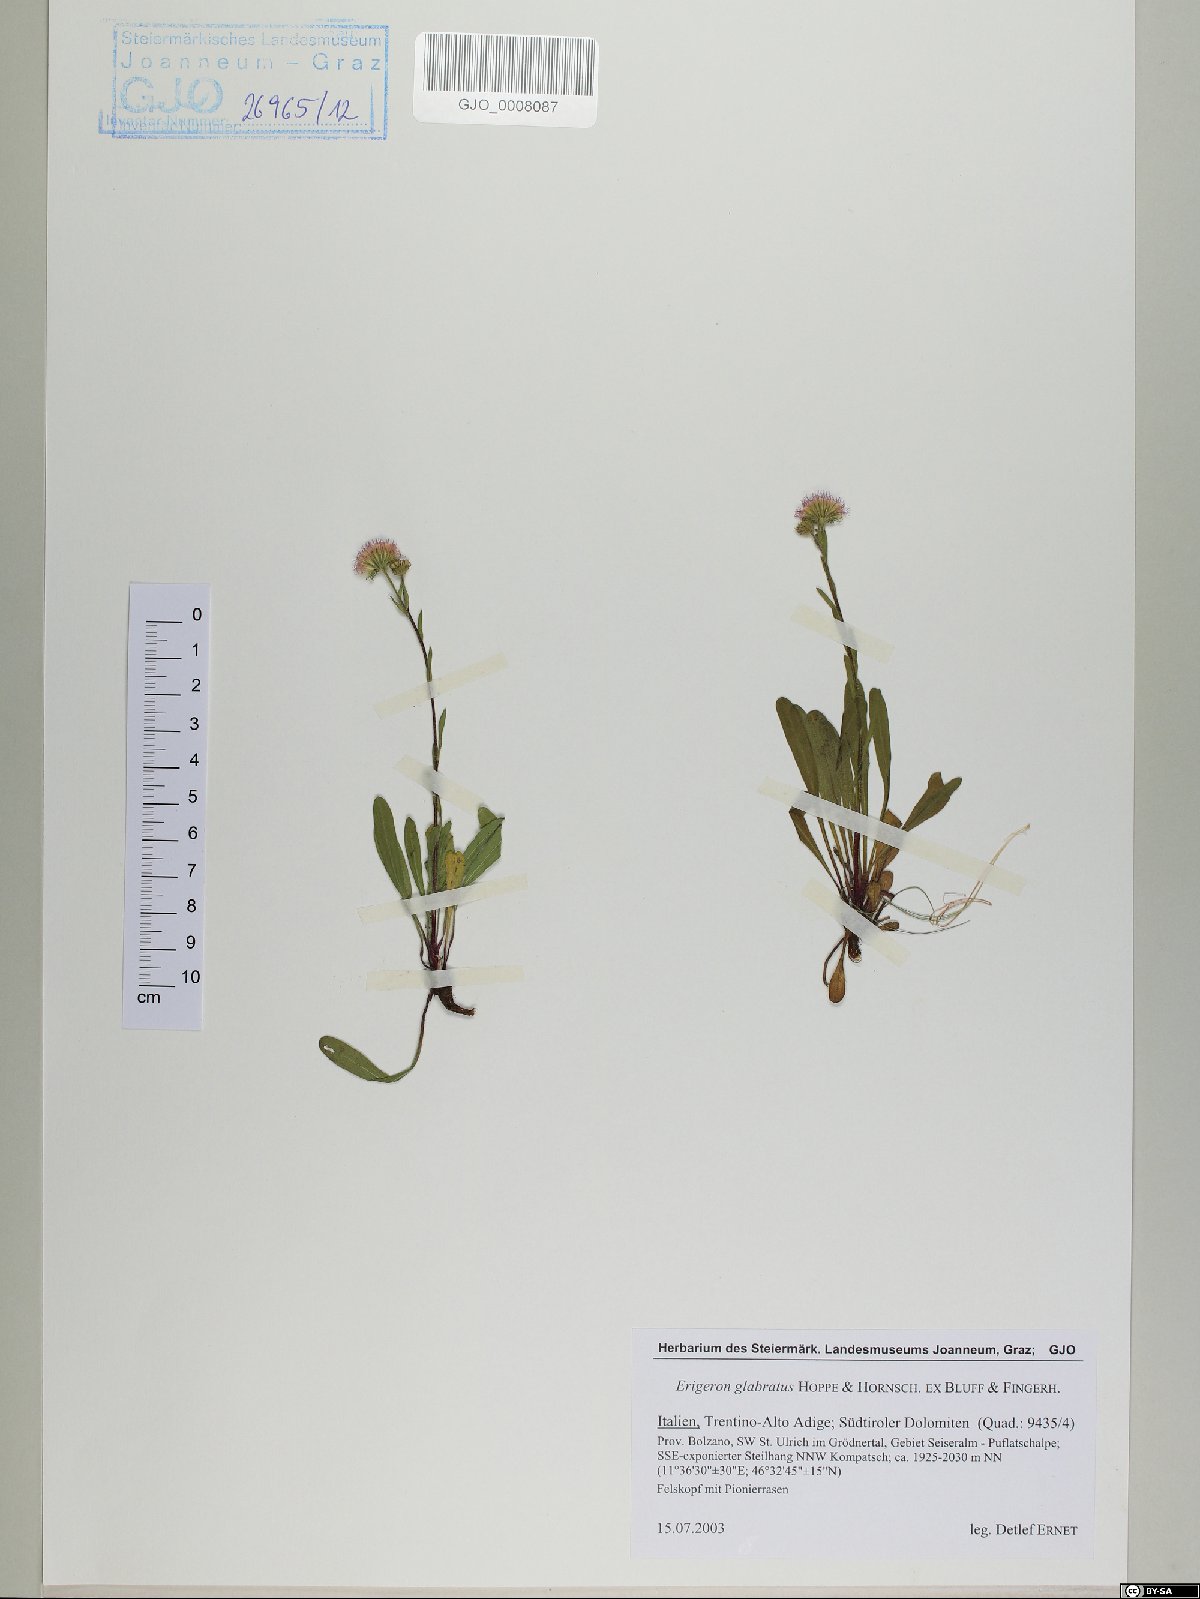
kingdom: Plantae
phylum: Tracheophyta
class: Magnoliopsida
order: Asterales
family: Asteraceae
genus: Erigeron
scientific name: Erigeron glabratus
